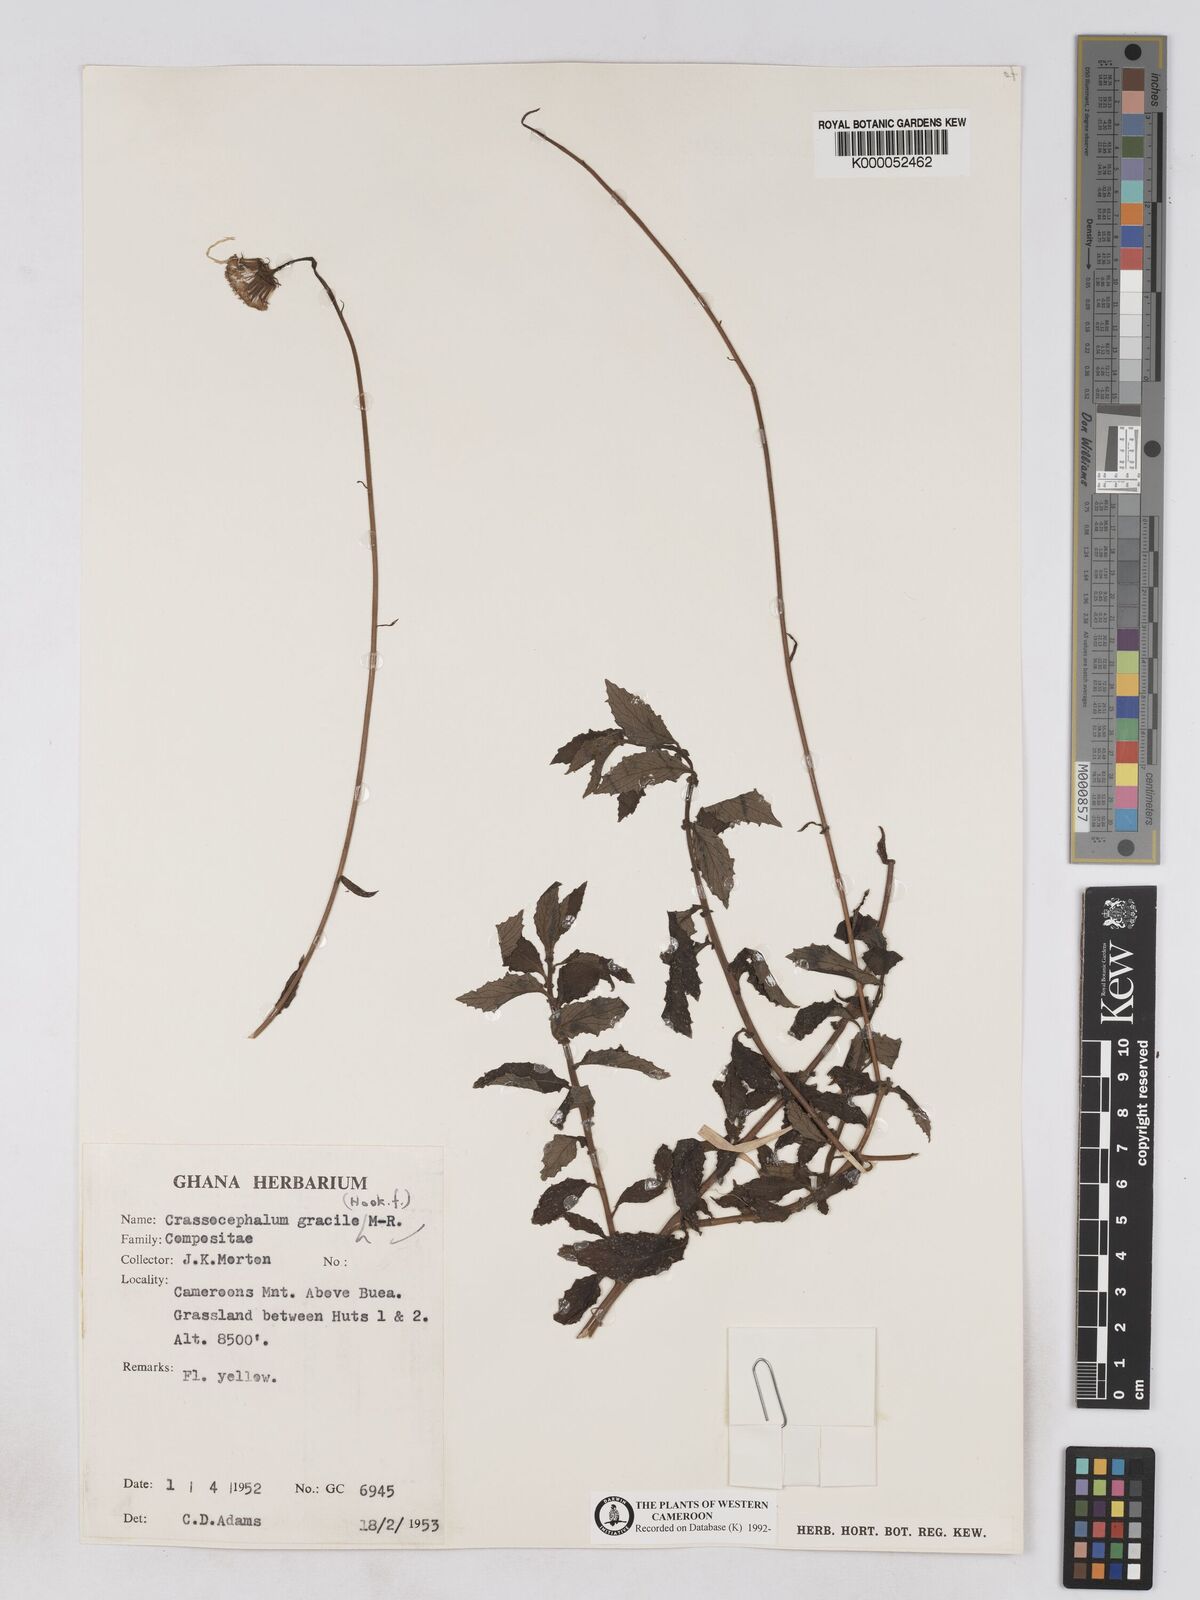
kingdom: Plantae
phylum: Tracheophyta
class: Magnoliopsida
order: Asterales
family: Asteraceae
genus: Crassocephalum
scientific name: Crassocephalum
